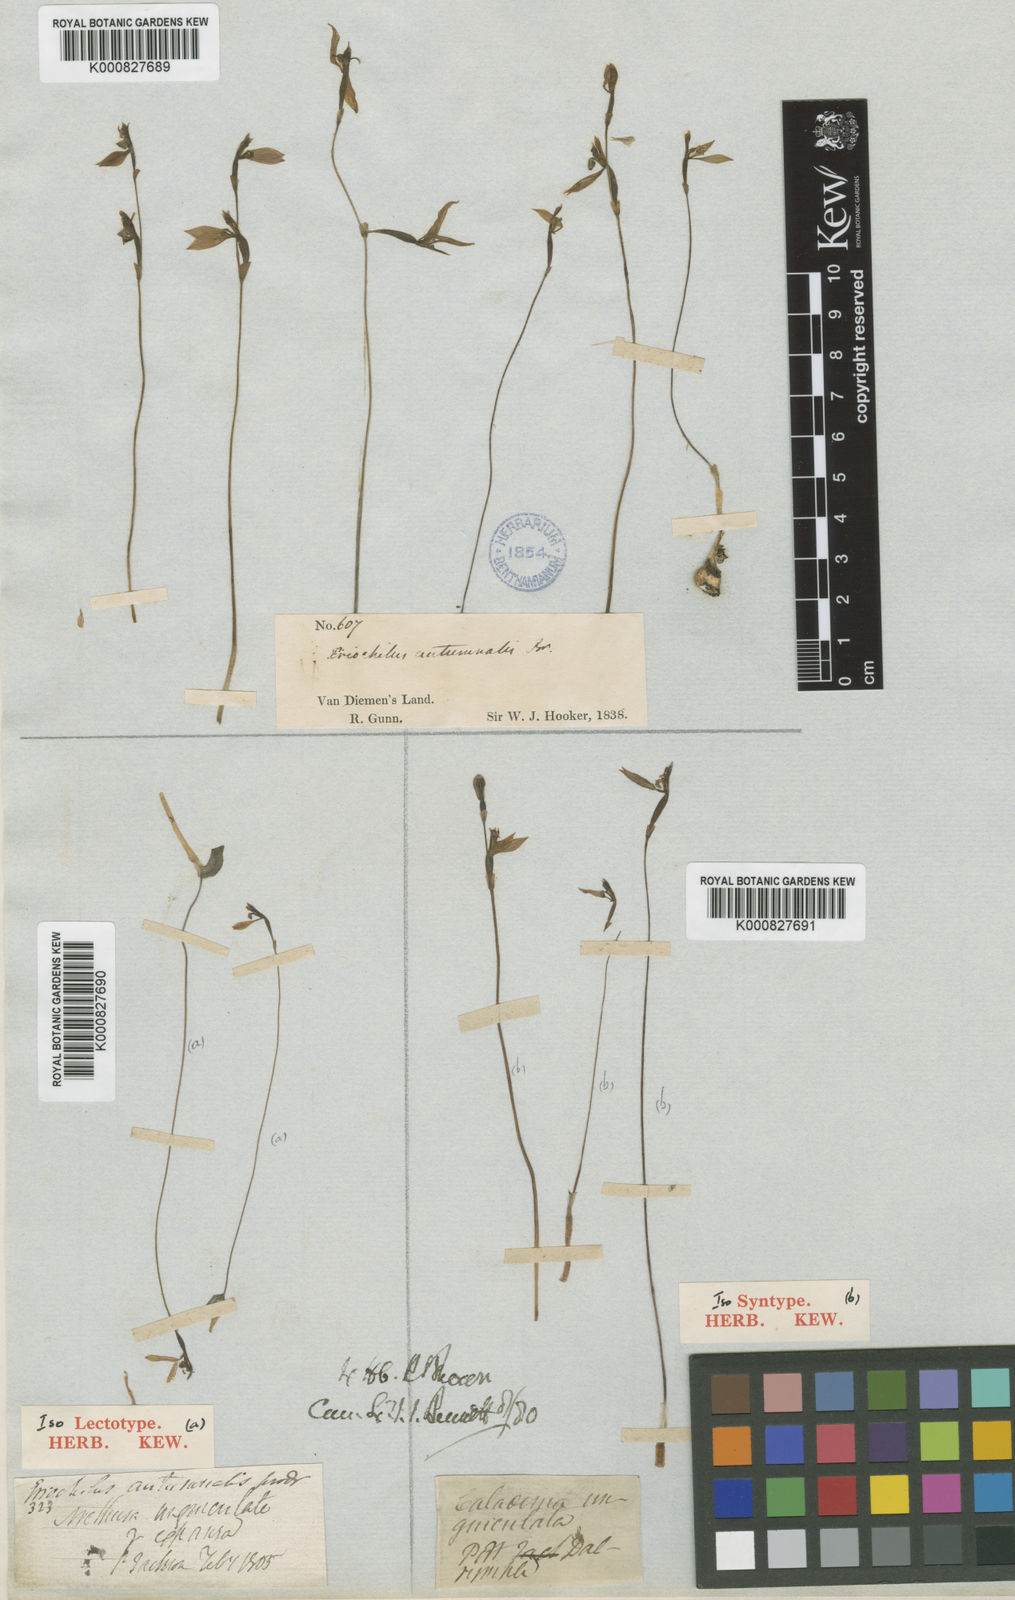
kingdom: Plantae
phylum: Tracheophyta
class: Liliopsida
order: Asparagales
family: Orchidaceae
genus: Eriochilus
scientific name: Eriochilus cucullatus
